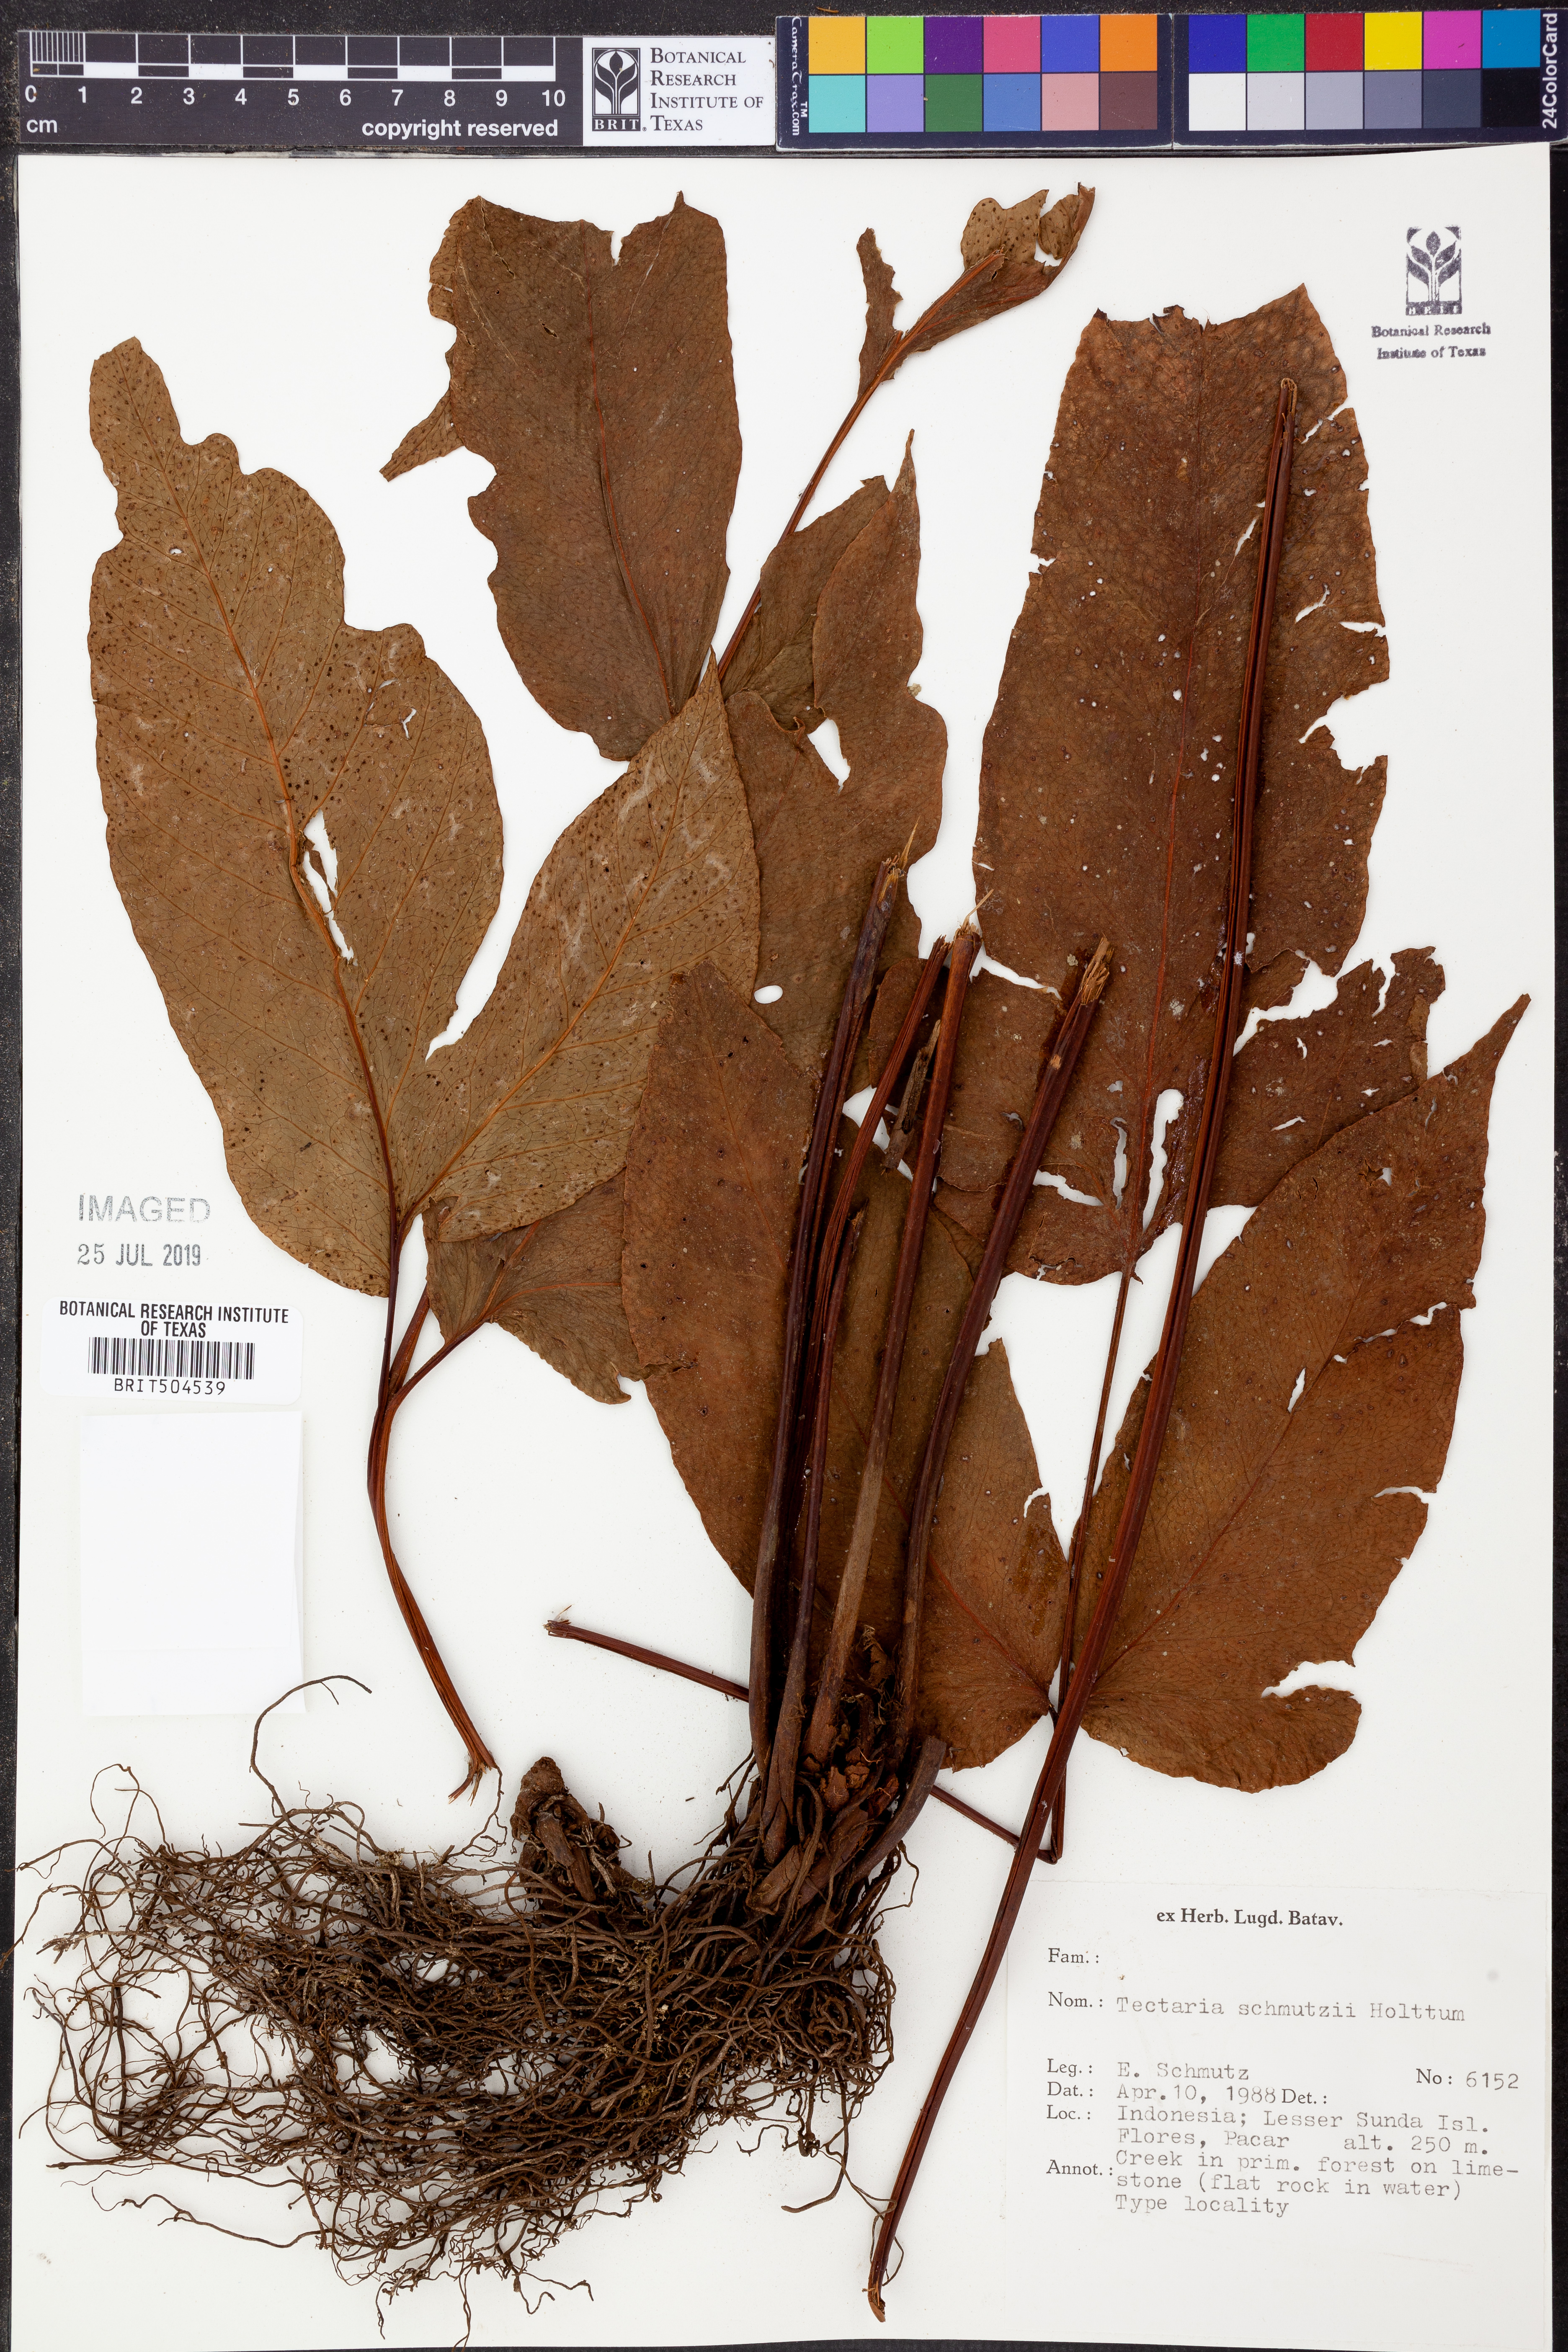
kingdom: Plantae
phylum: Tracheophyta
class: Polypodiopsida
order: Polypodiales
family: Tectariaceae
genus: Tectaria
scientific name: Tectaria schmutzii
